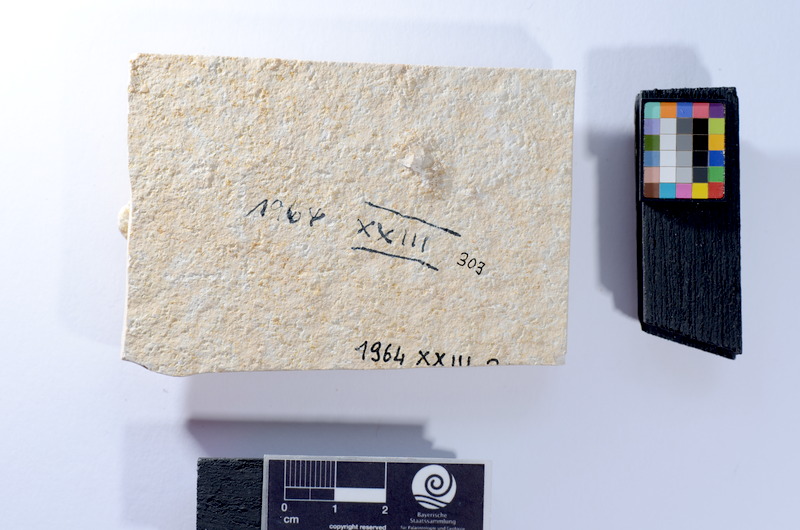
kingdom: Animalia
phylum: Chordata
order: Salmoniformes
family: Orthogonikleithridae
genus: Leptolepides
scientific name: Leptolepides
